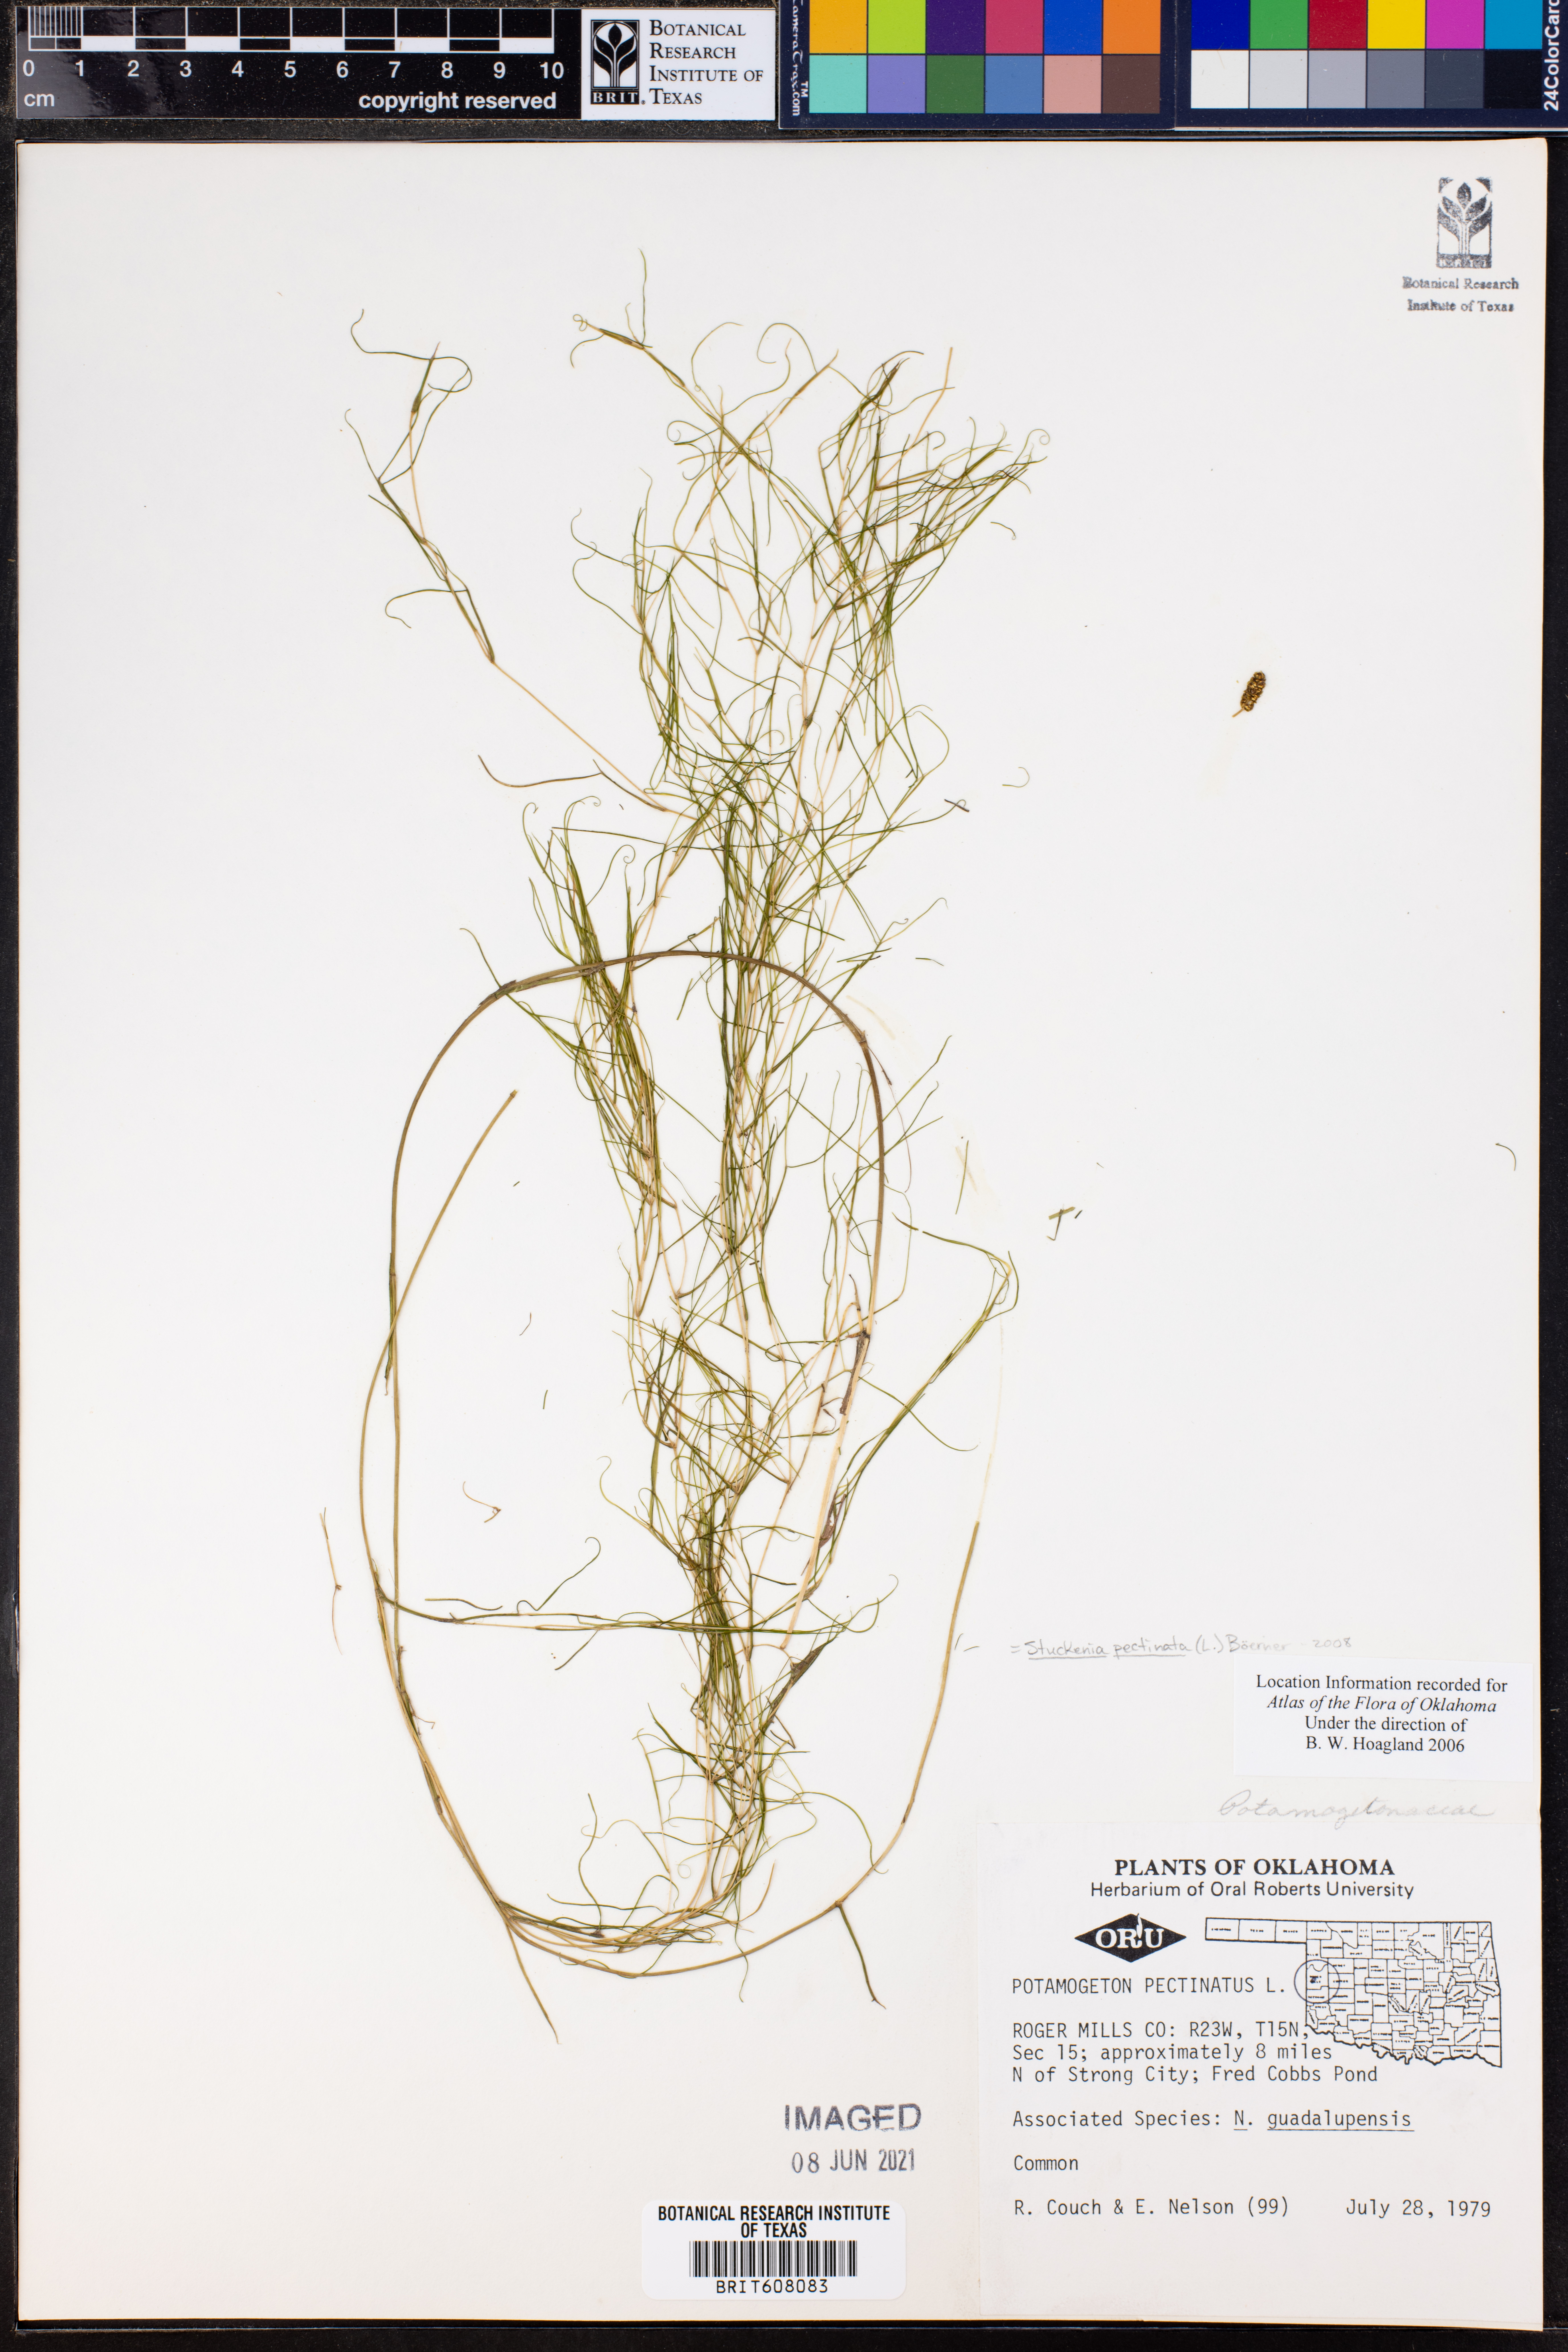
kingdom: Plantae
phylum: Tracheophyta
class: Liliopsida
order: Alismatales
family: Potamogetonaceae
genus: Stuckenia
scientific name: Stuckenia pectinata
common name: Sago pondweed
